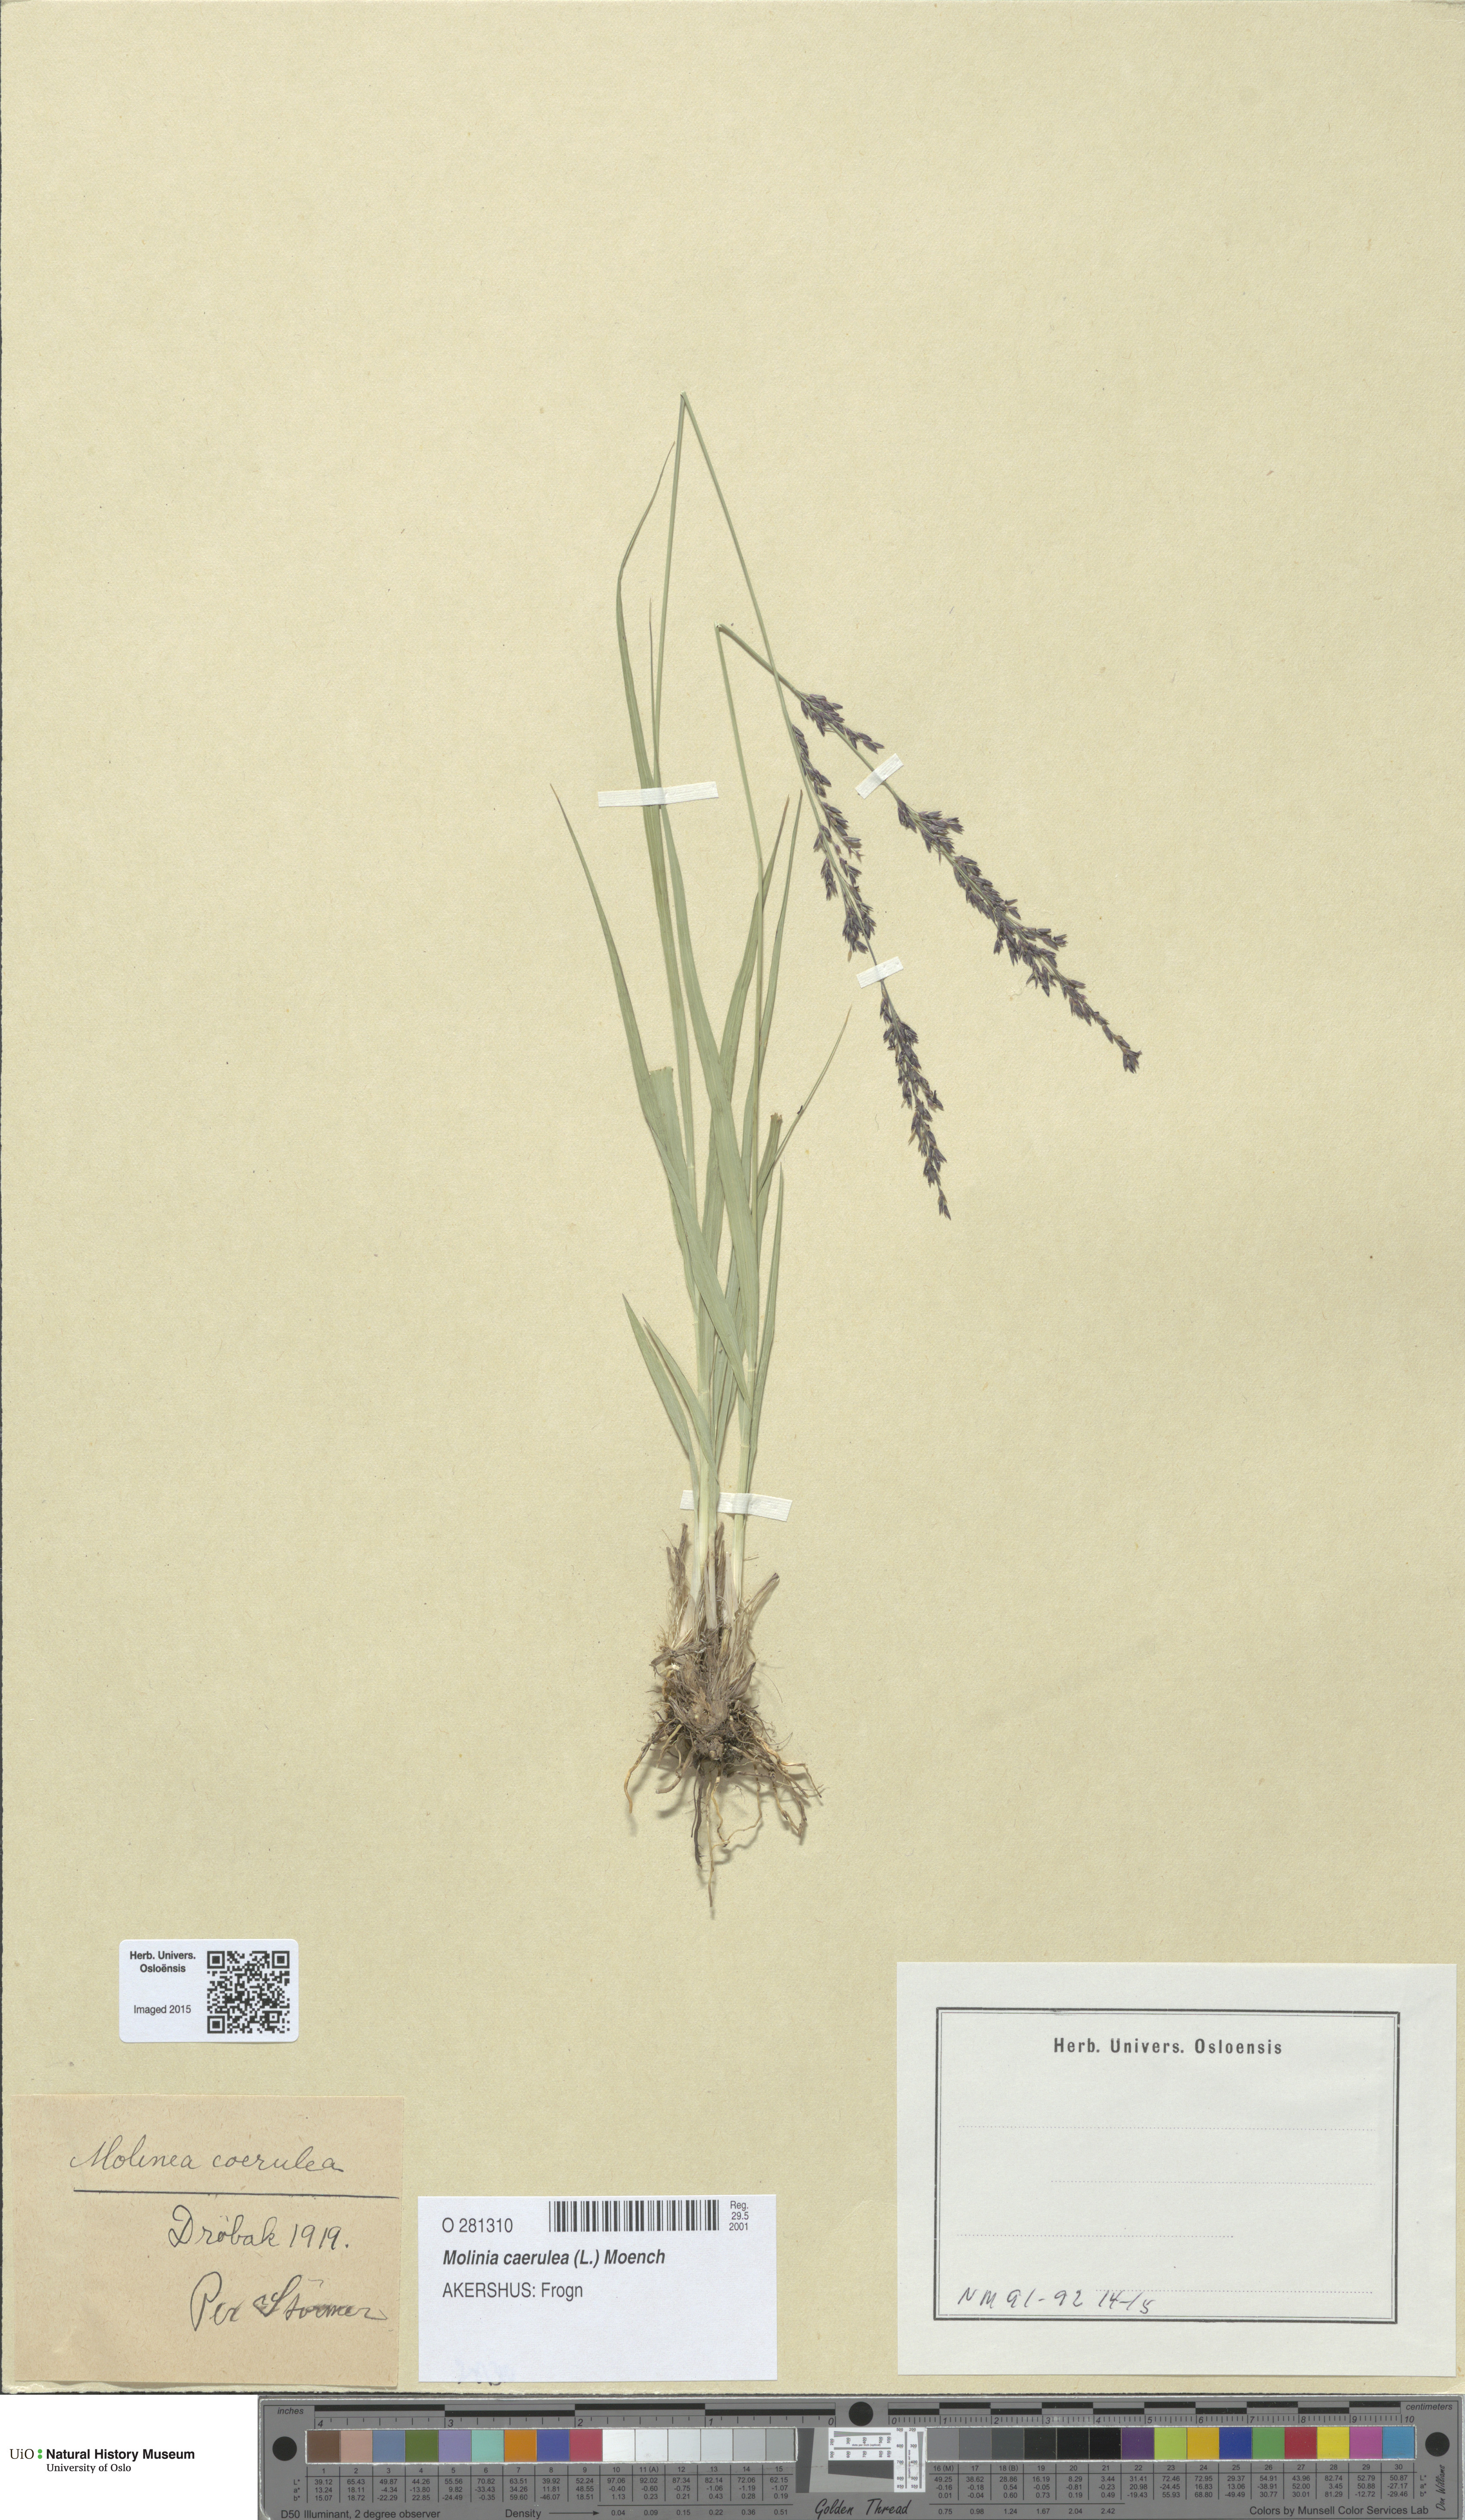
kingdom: Plantae
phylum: Tracheophyta
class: Liliopsida
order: Poales
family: Poaceae
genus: Molinia
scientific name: Molinia caerulea
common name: Purple moor-grass
